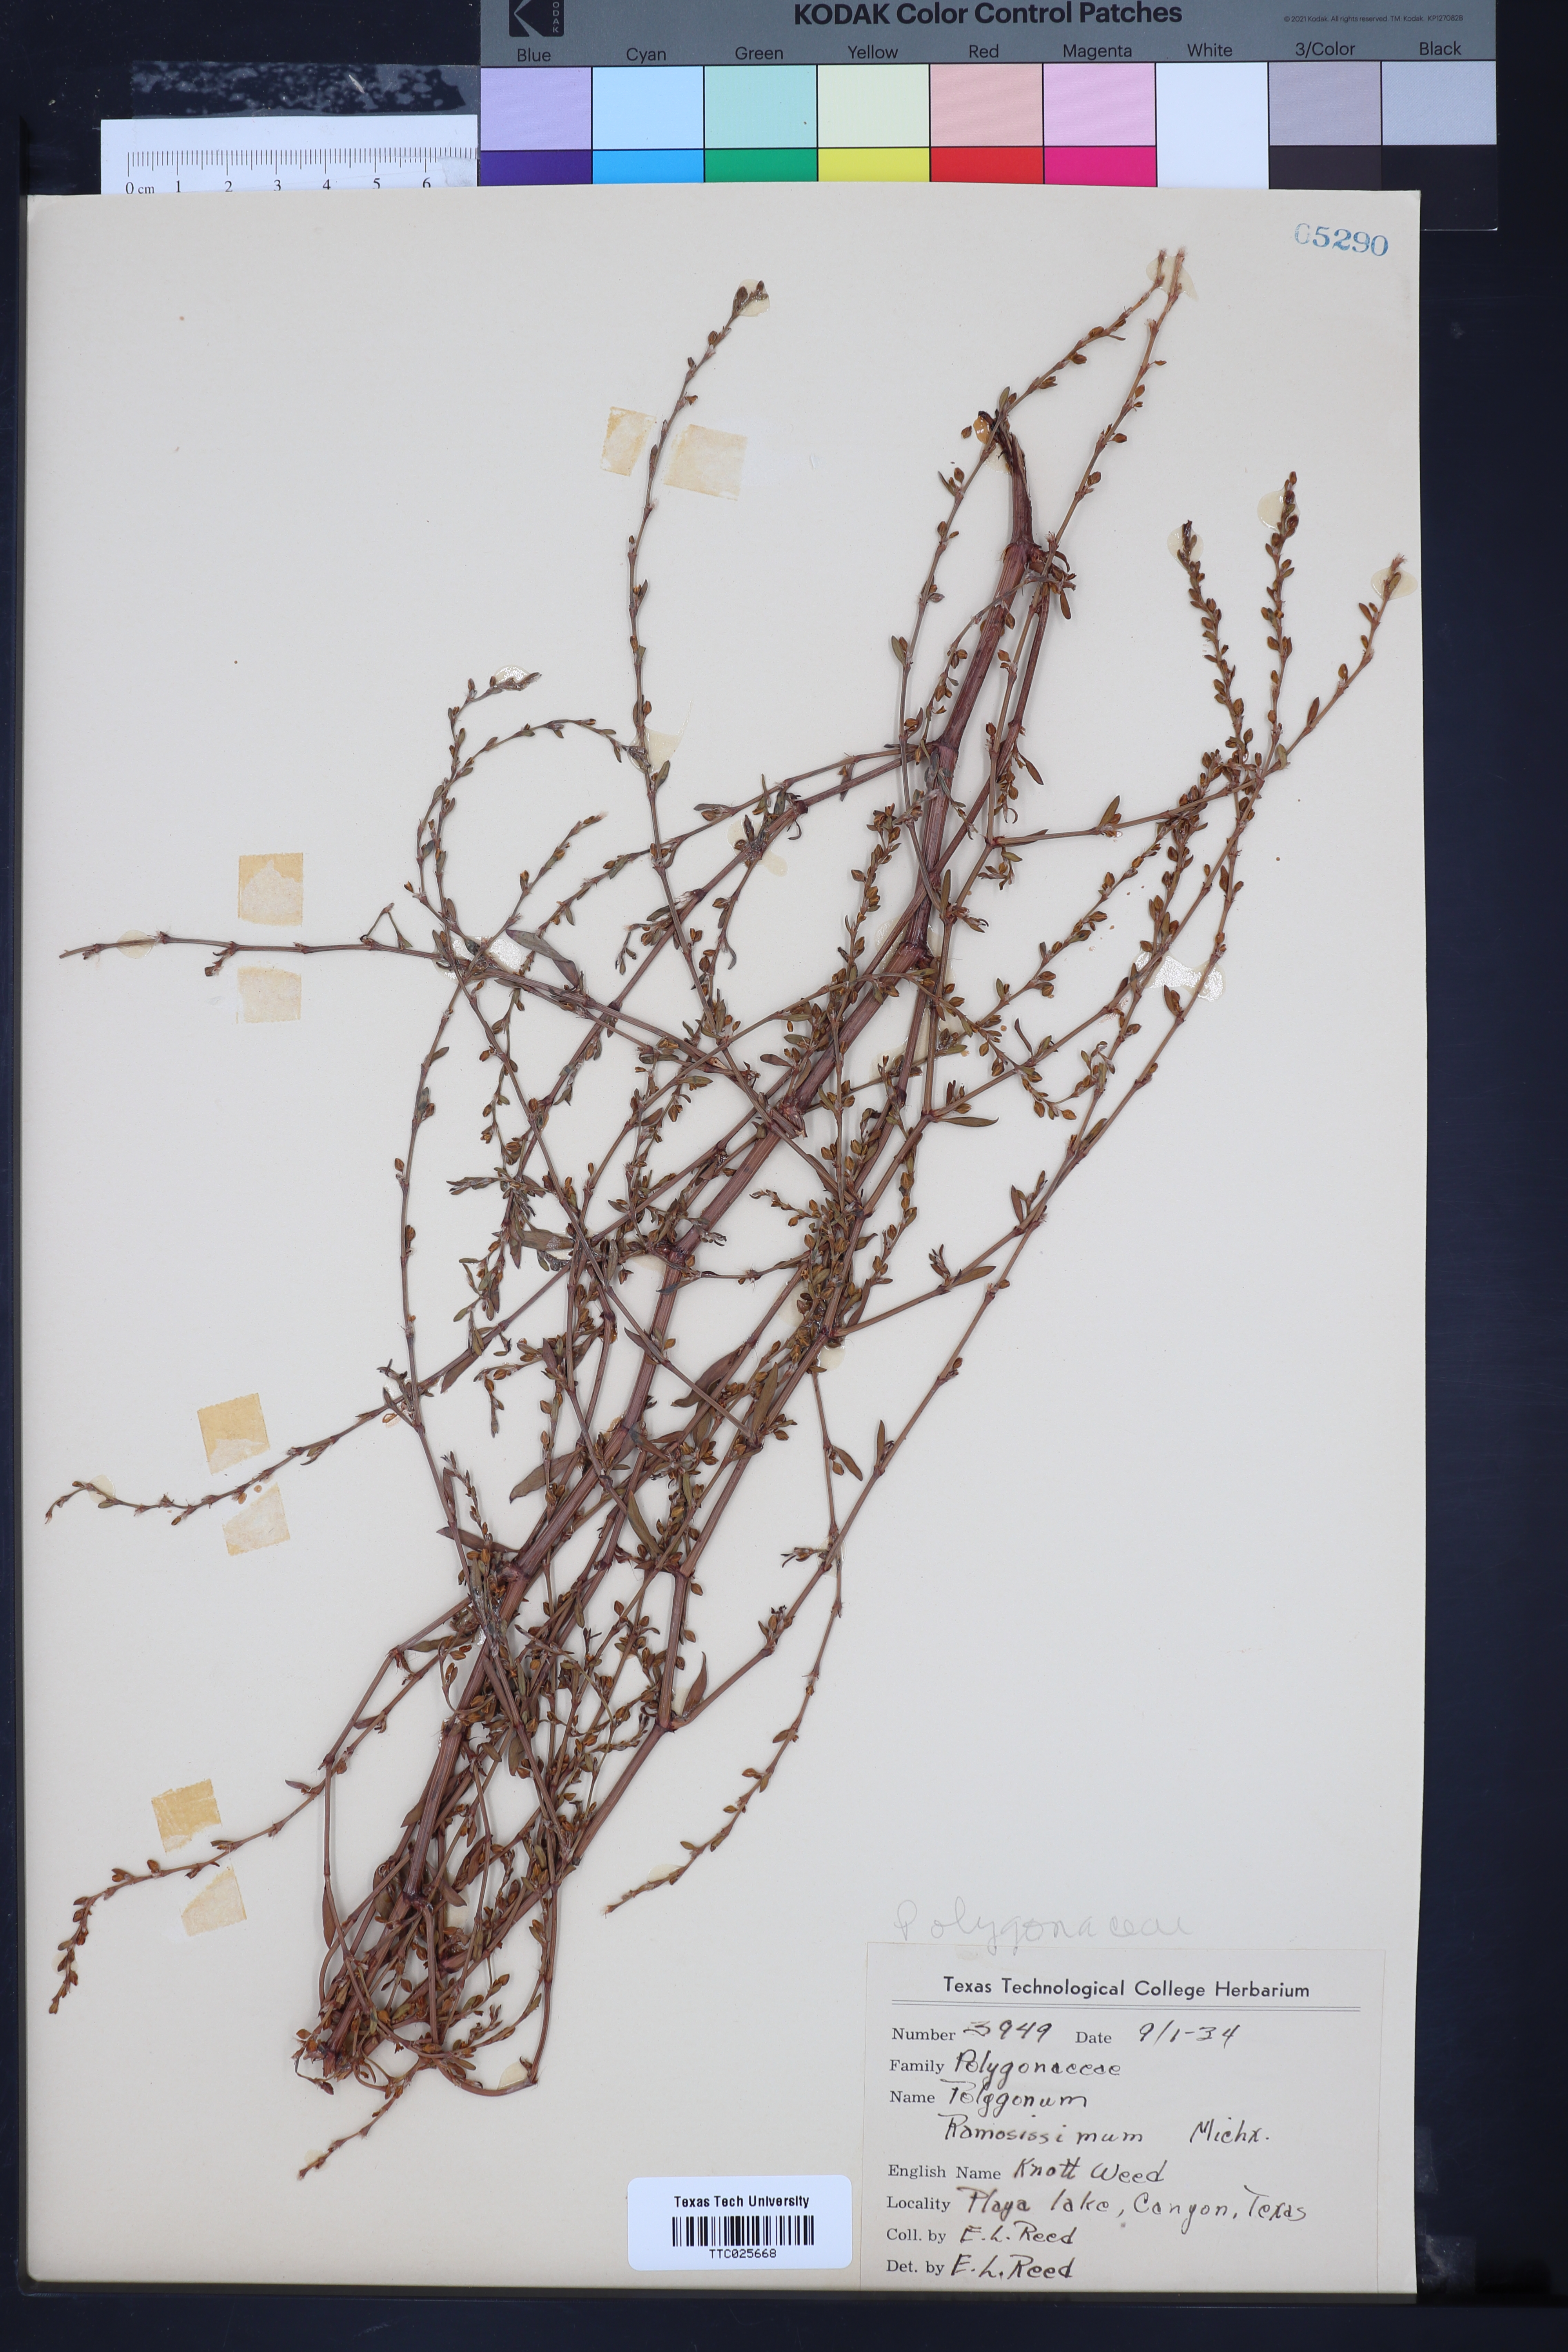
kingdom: Plantae
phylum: Tracheophyta
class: Magnoliopsida
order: Caryophyllales
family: Polygonaceae
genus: Polygonum
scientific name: Polygonum ramosissimum
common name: Bushy knotweed
